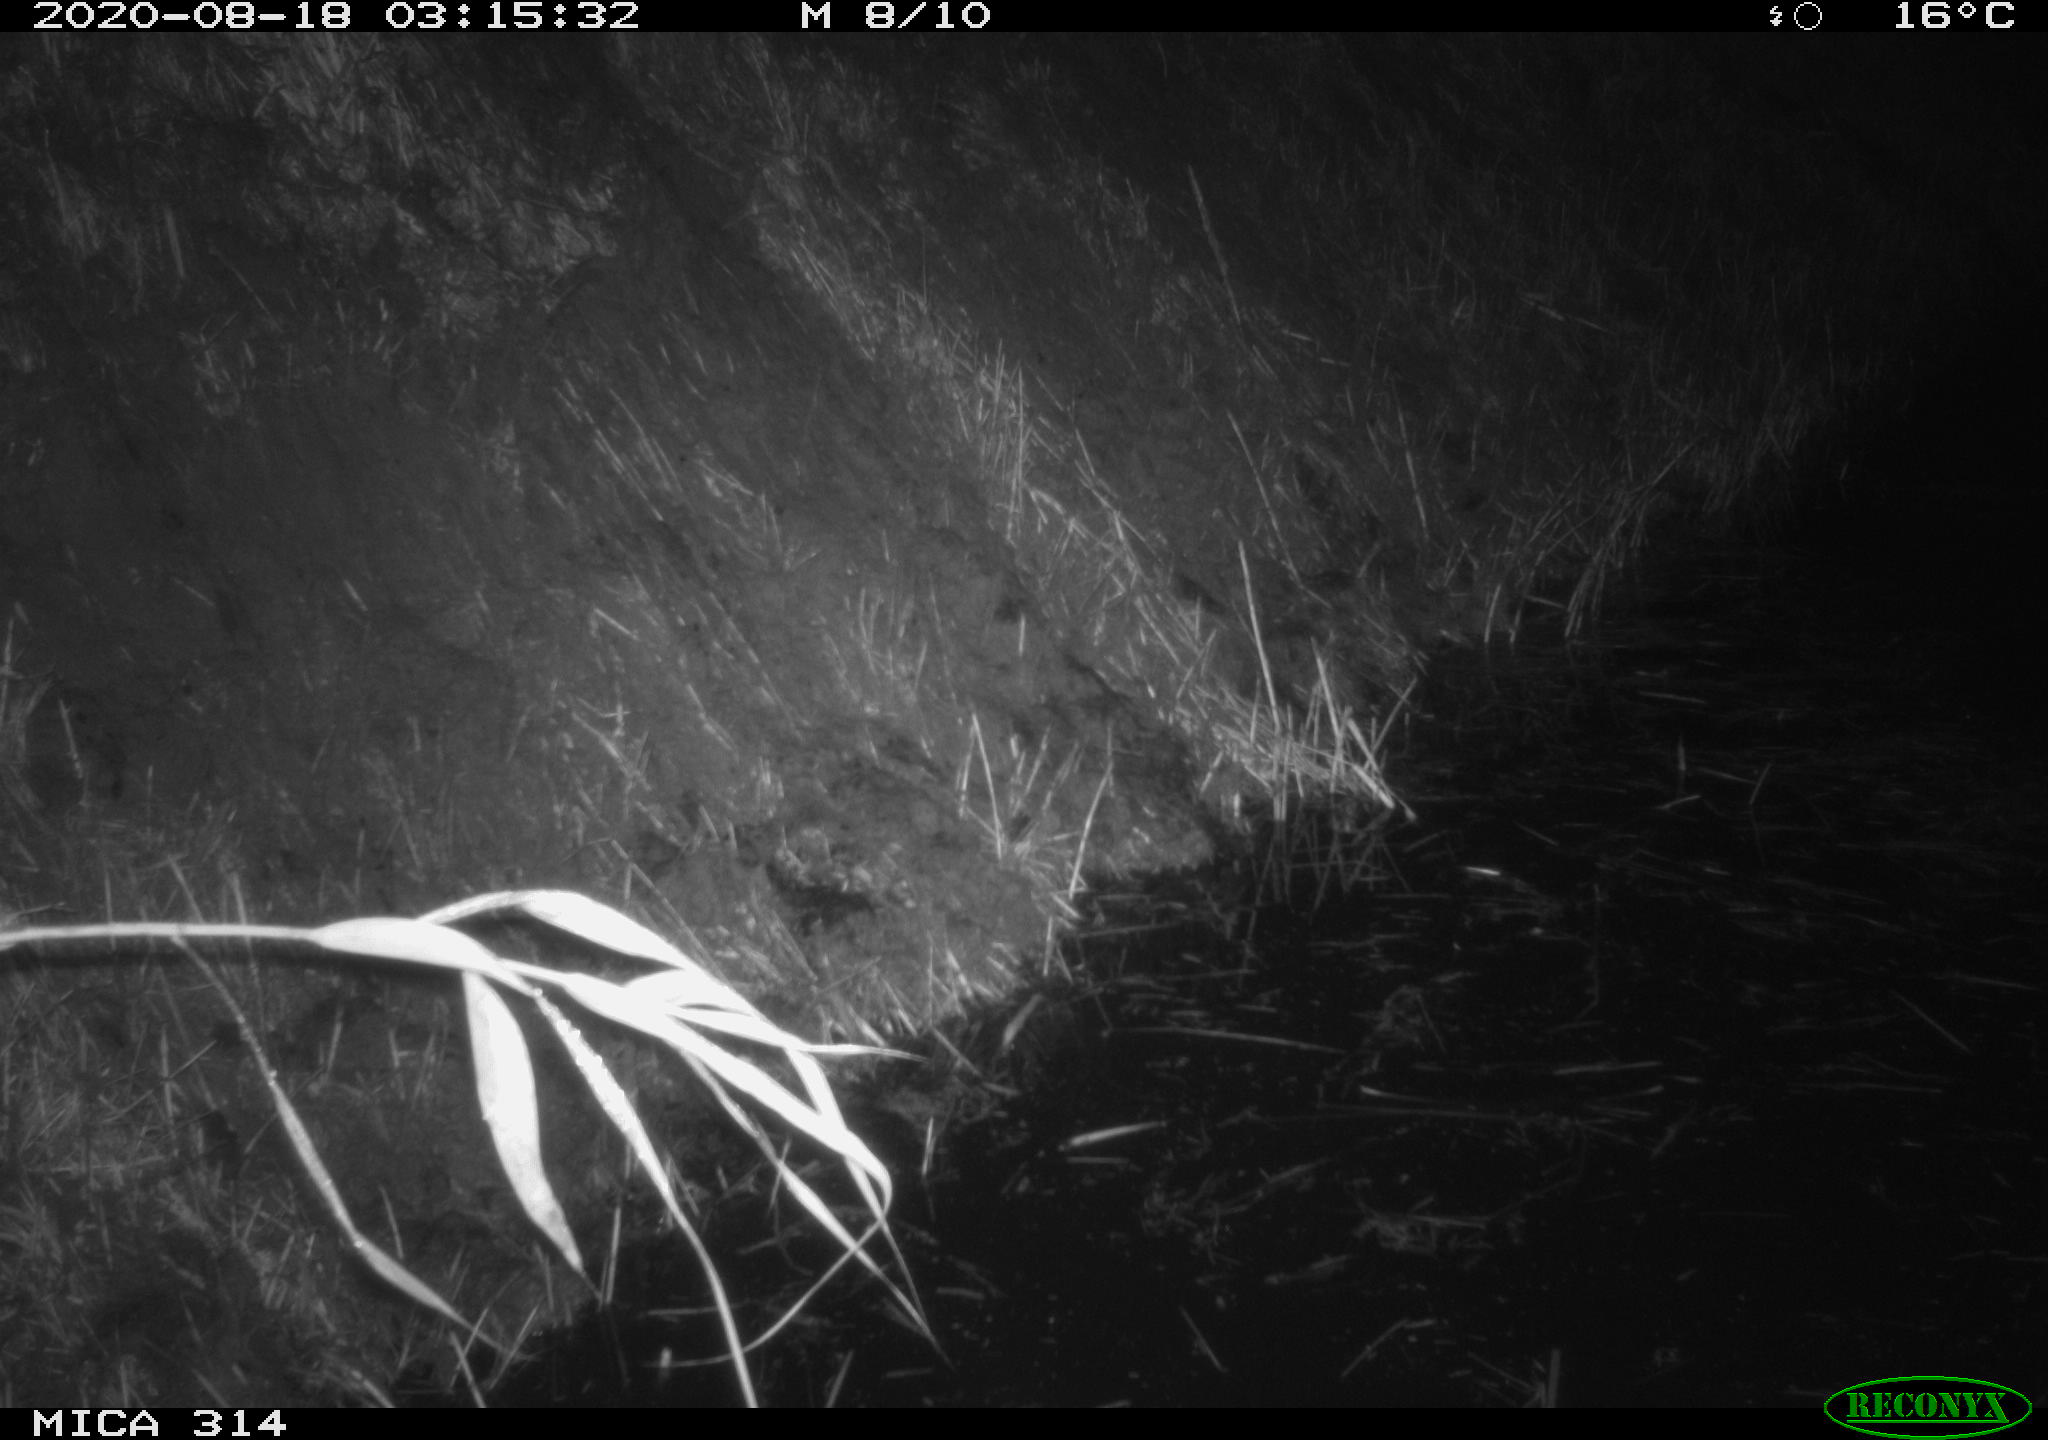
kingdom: Animalia
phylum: Chordata
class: Mammalia
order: Rodentia
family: Muridae
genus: Rattus
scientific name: Rattus norvegicus
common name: Brown rat
